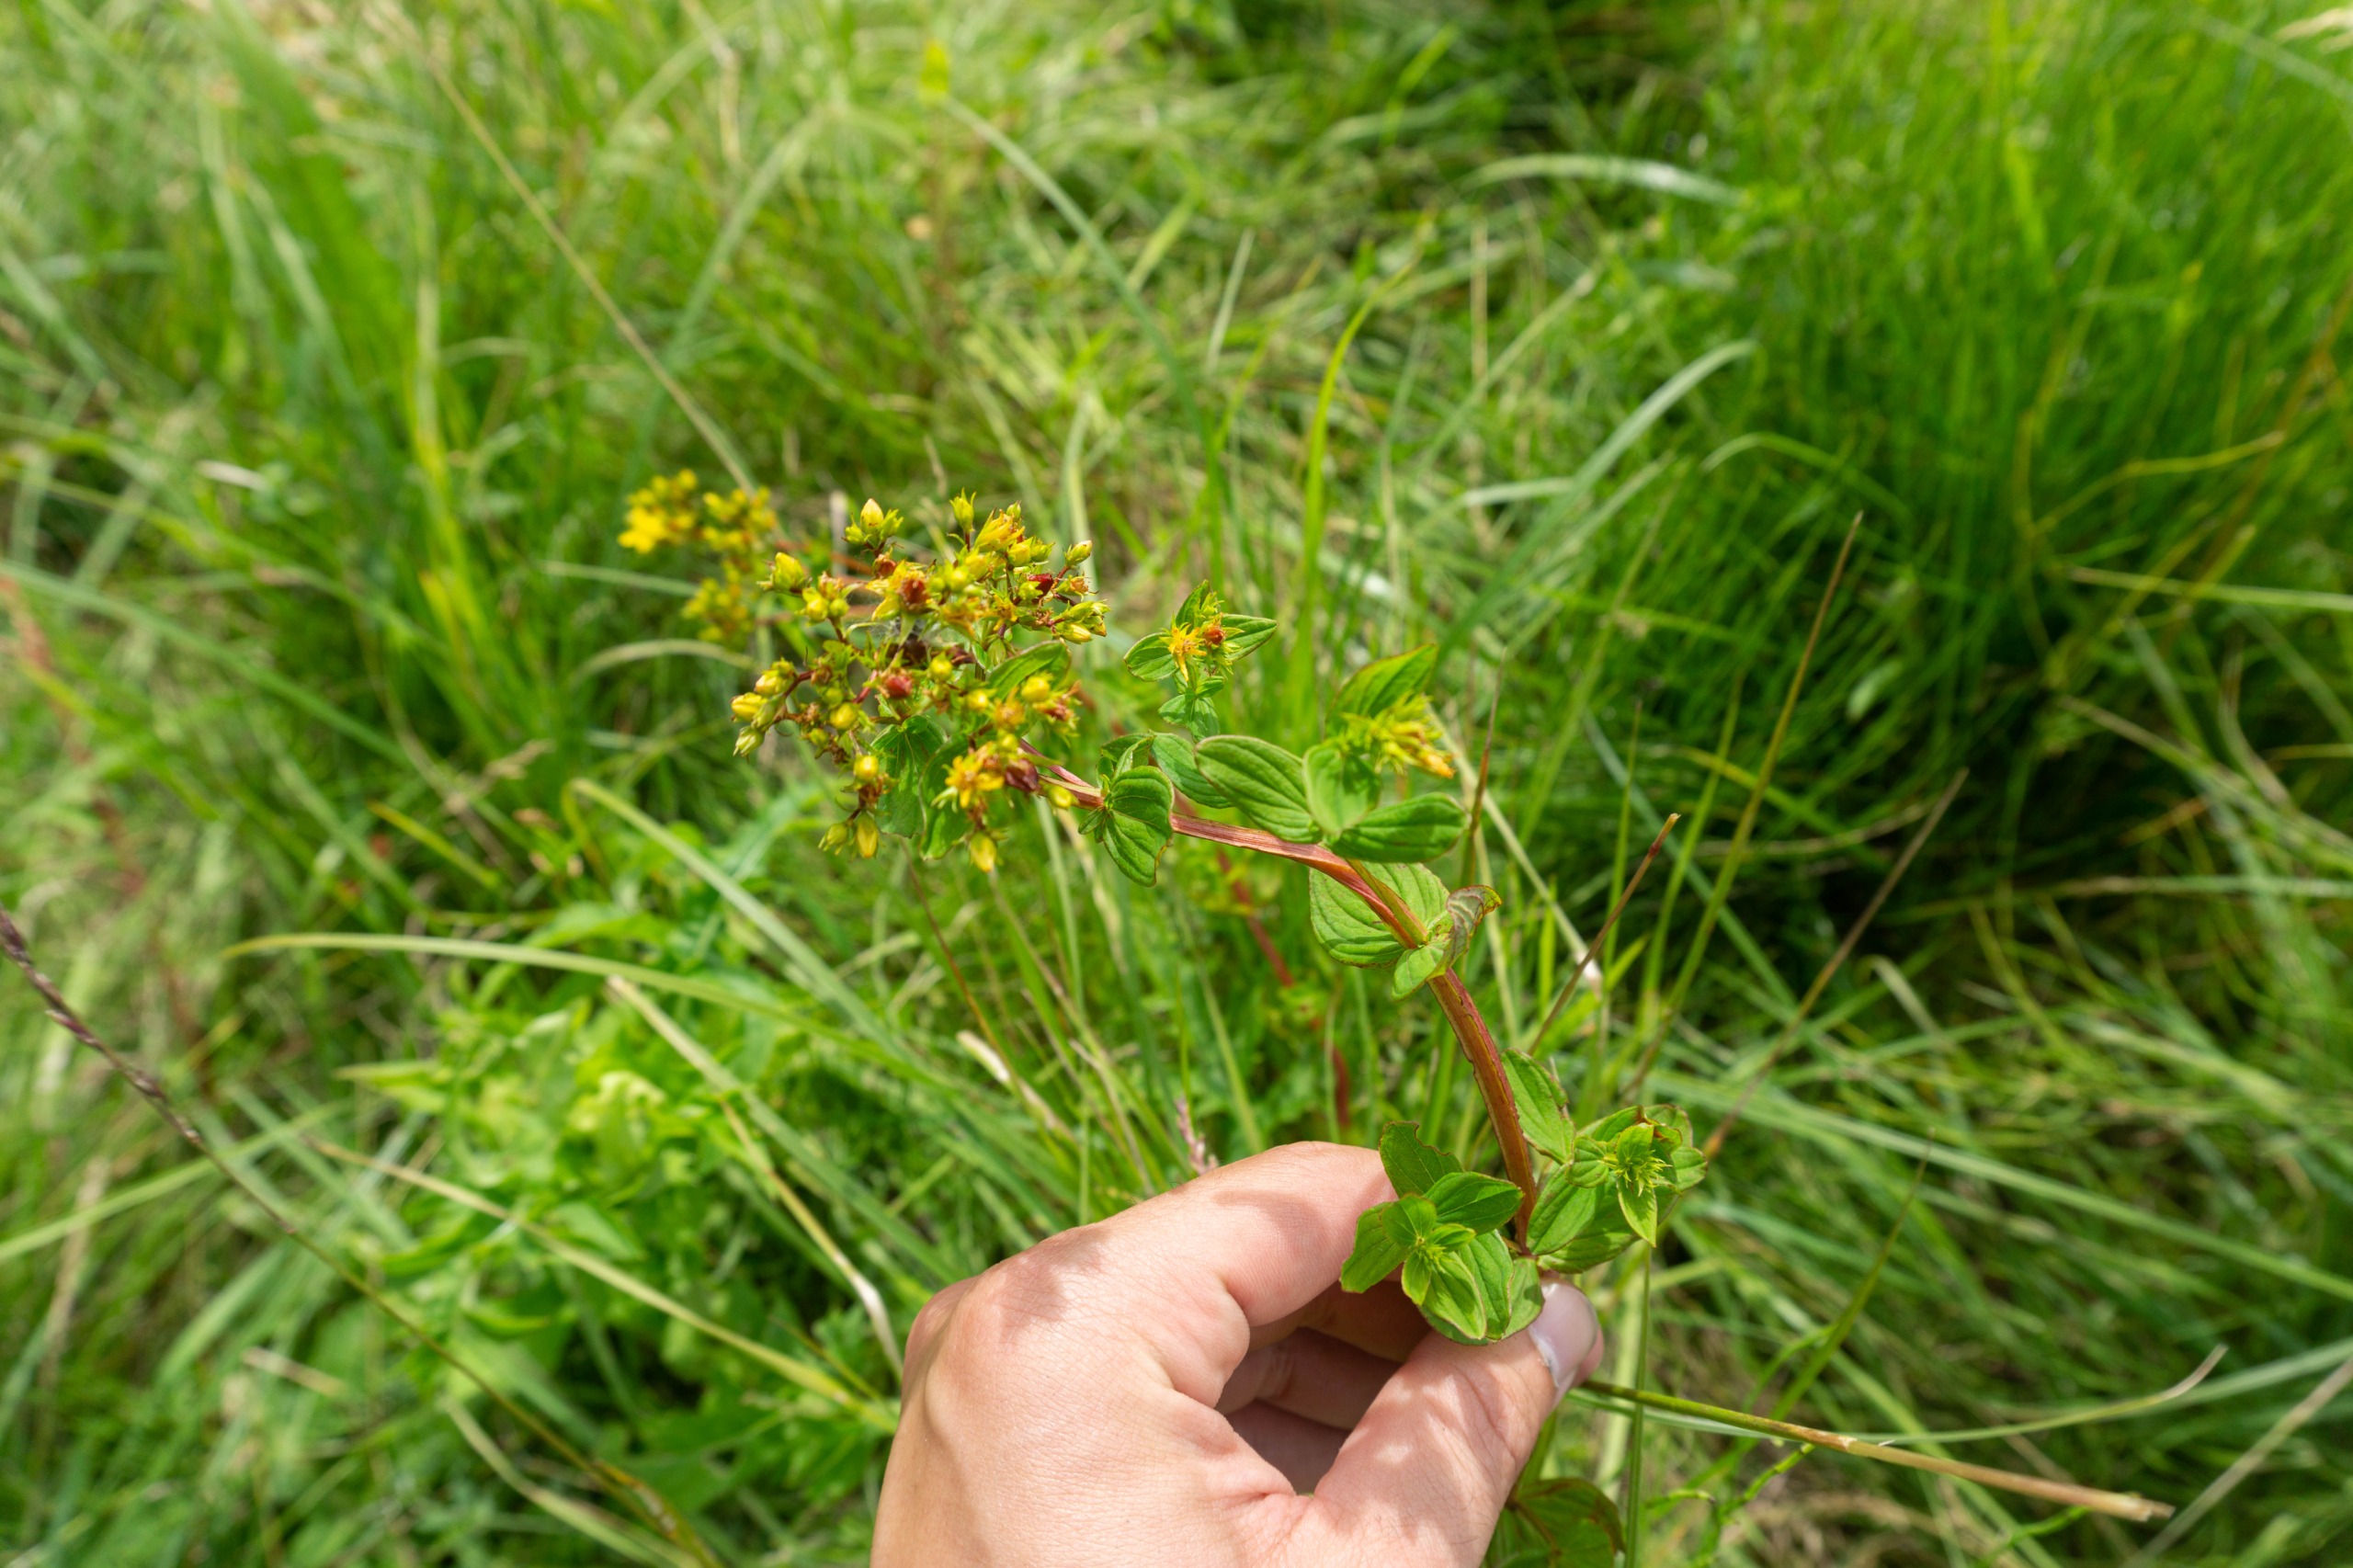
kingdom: Plantae
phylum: Tracheophyta
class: Magnoliopsida
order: Malpighiales
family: Hypericaceae
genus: Hypericum
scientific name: Hypericum tetrapterum
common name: Vinget perikon
